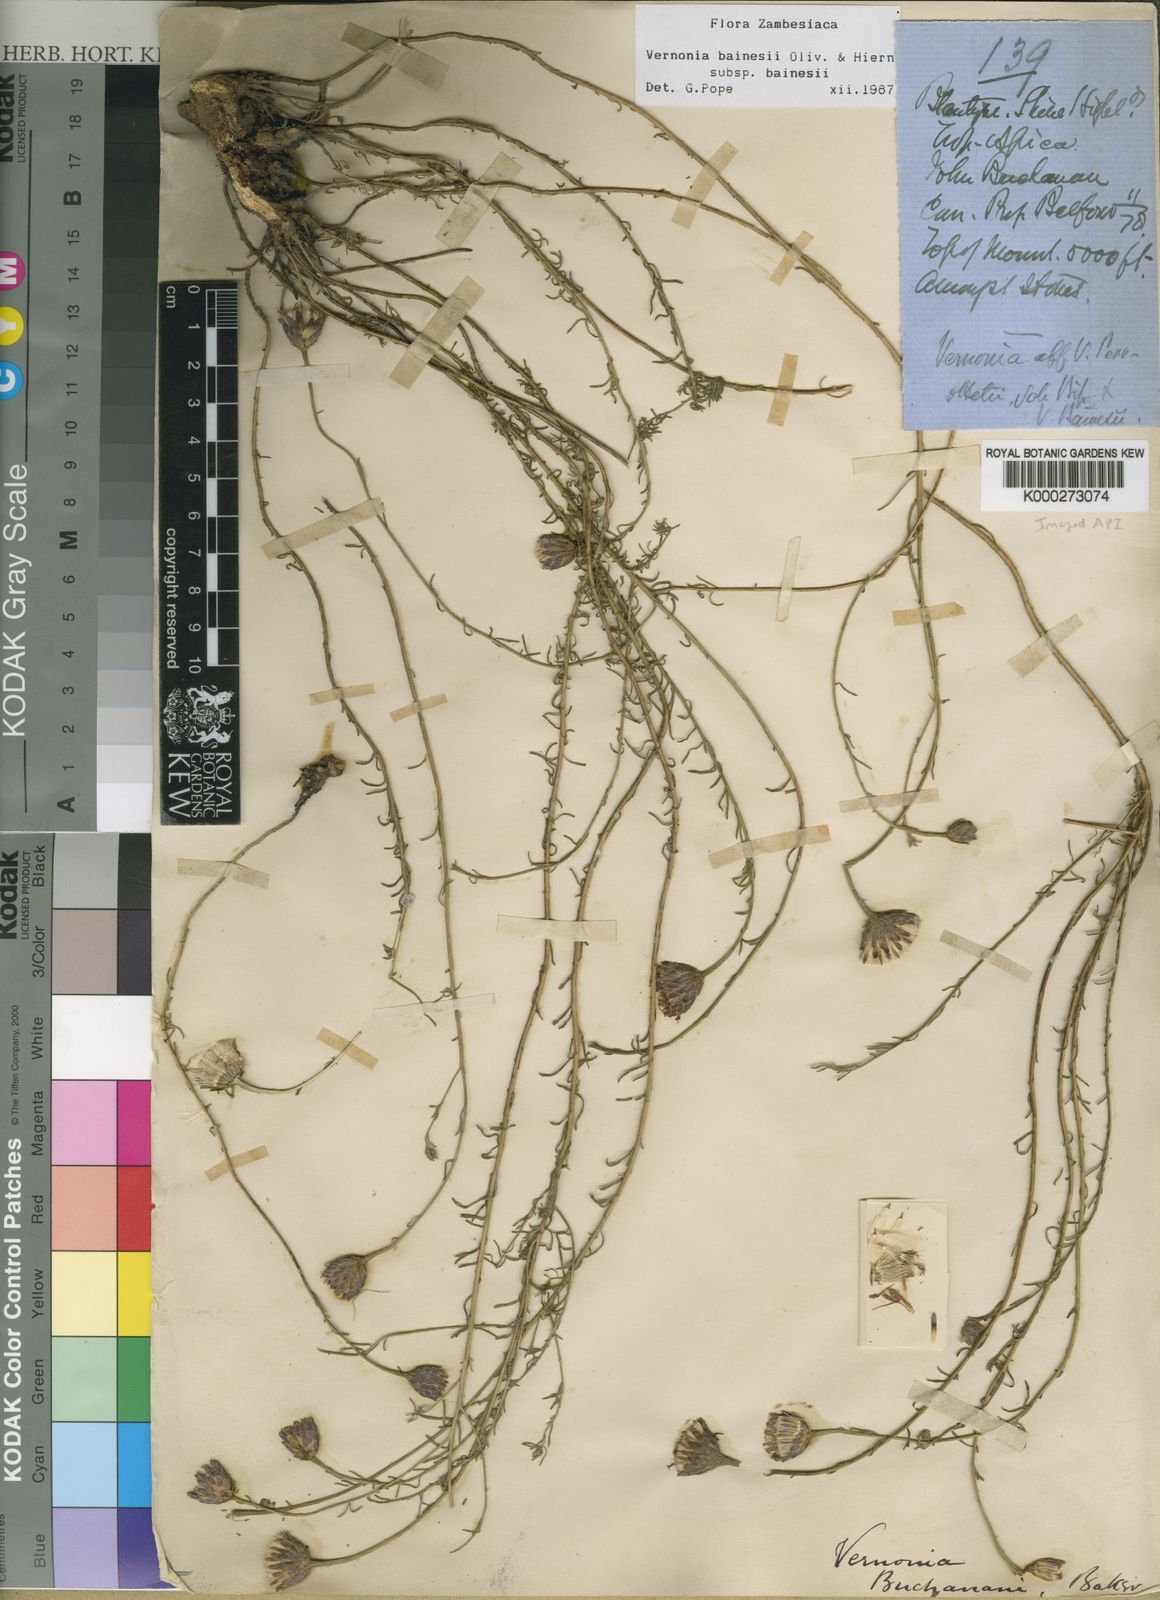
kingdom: Plantae
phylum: Tracheophyta
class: Magnoliopsida
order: Asterales
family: Asteraceae
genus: Crystallopollen
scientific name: Crystallopollen bainesii
